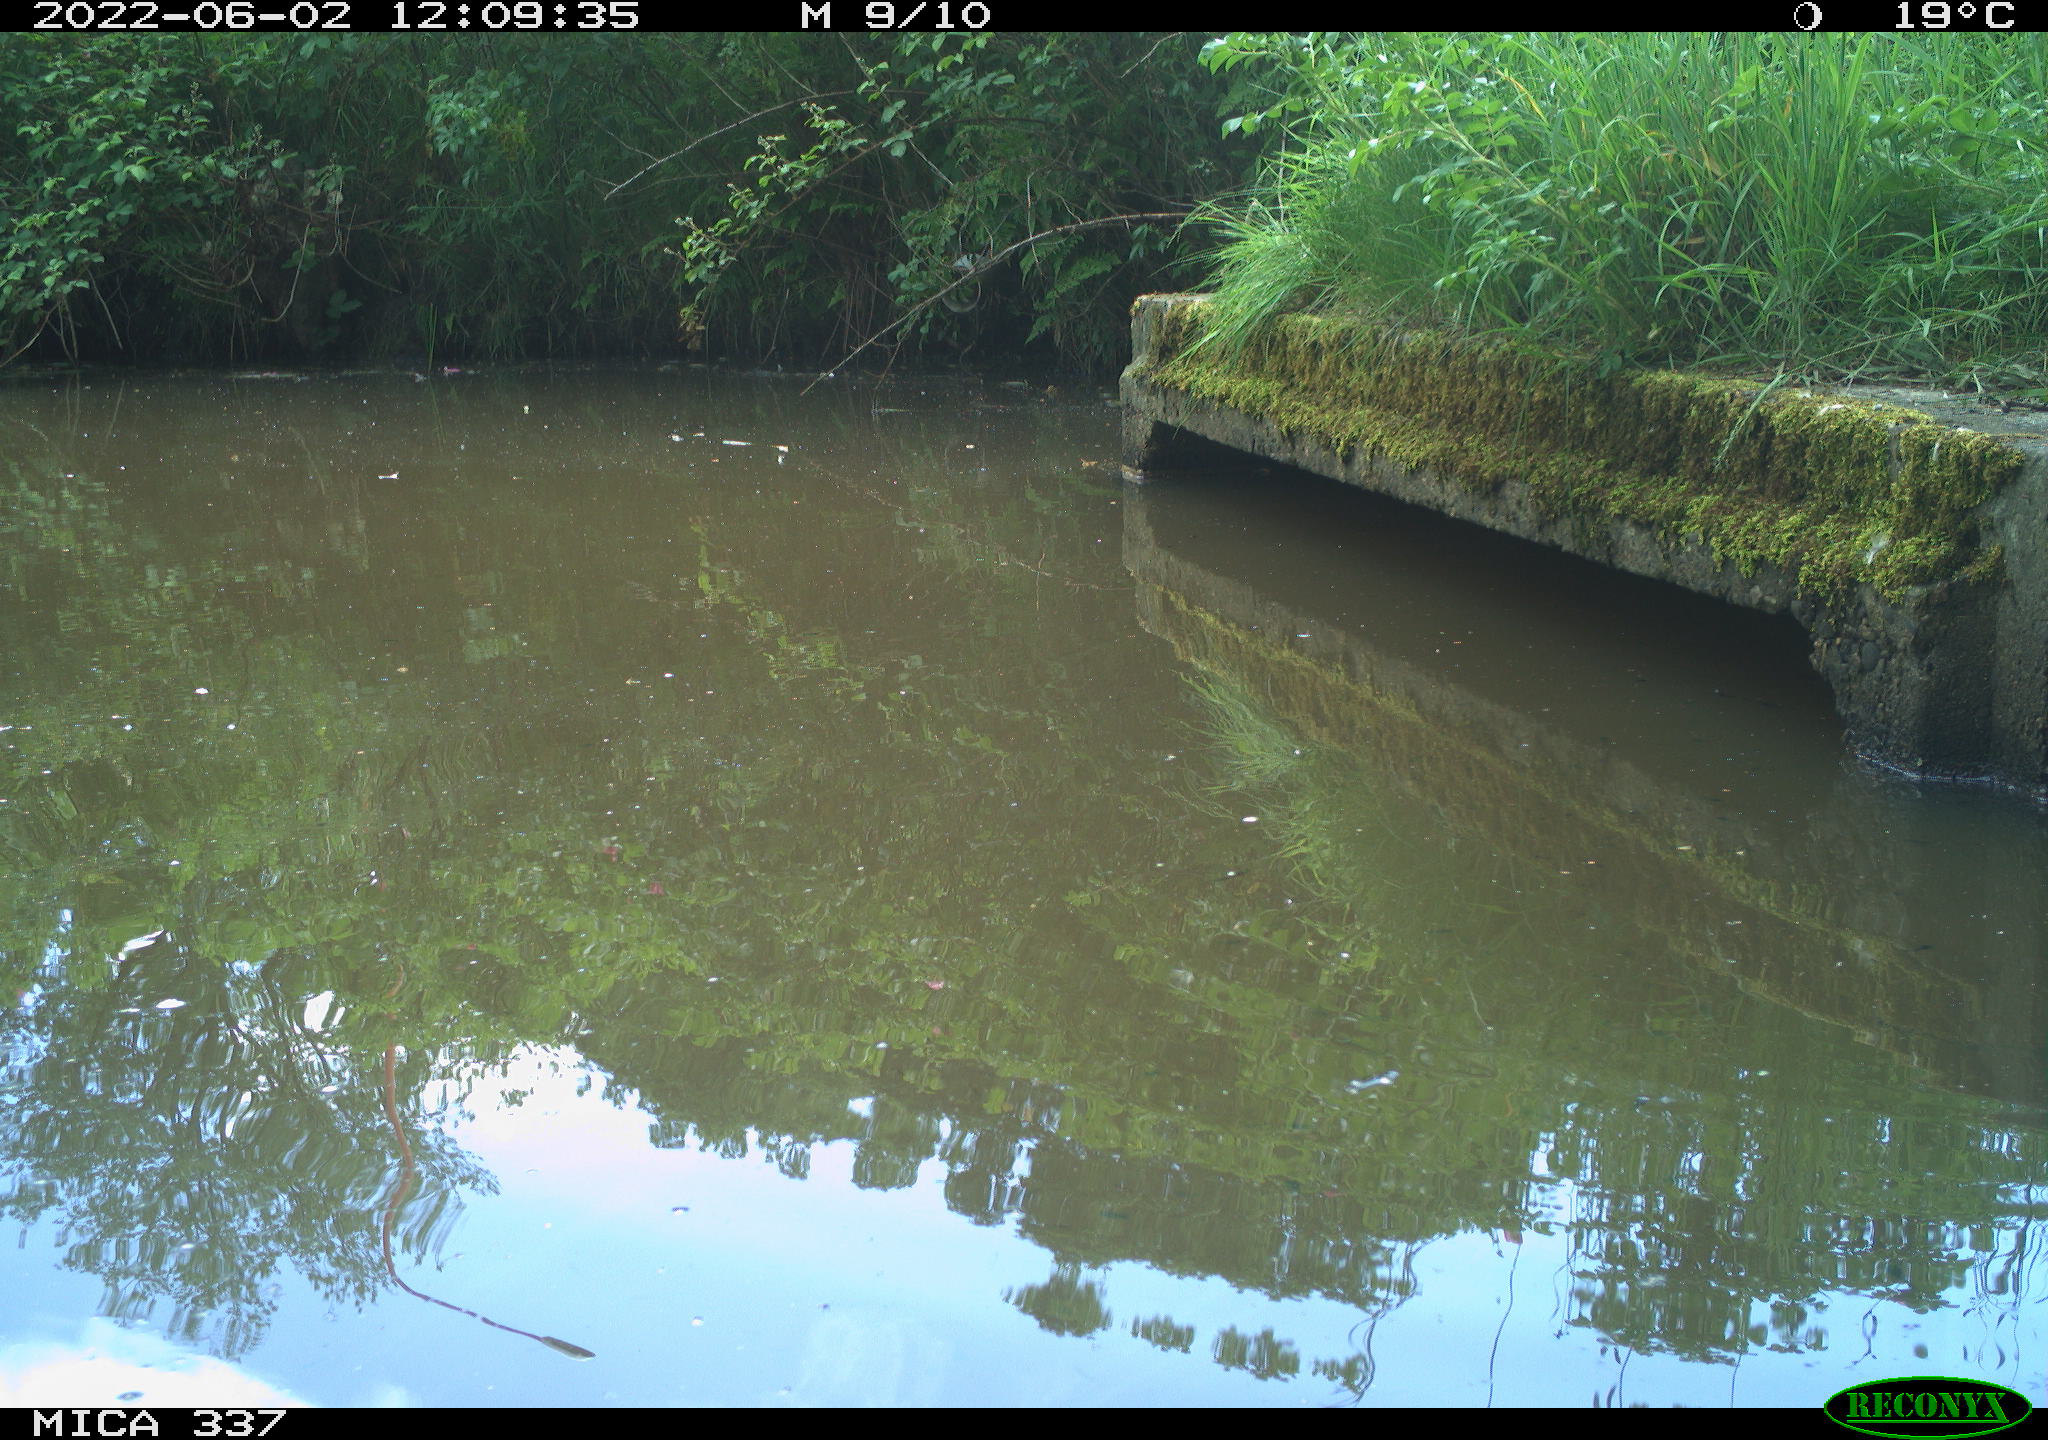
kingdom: Animalia
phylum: Chordata
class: Aves
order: Gruiformes
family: Rallidae
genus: Gallinula
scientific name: Gallinula chloropus
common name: Common moorhen
